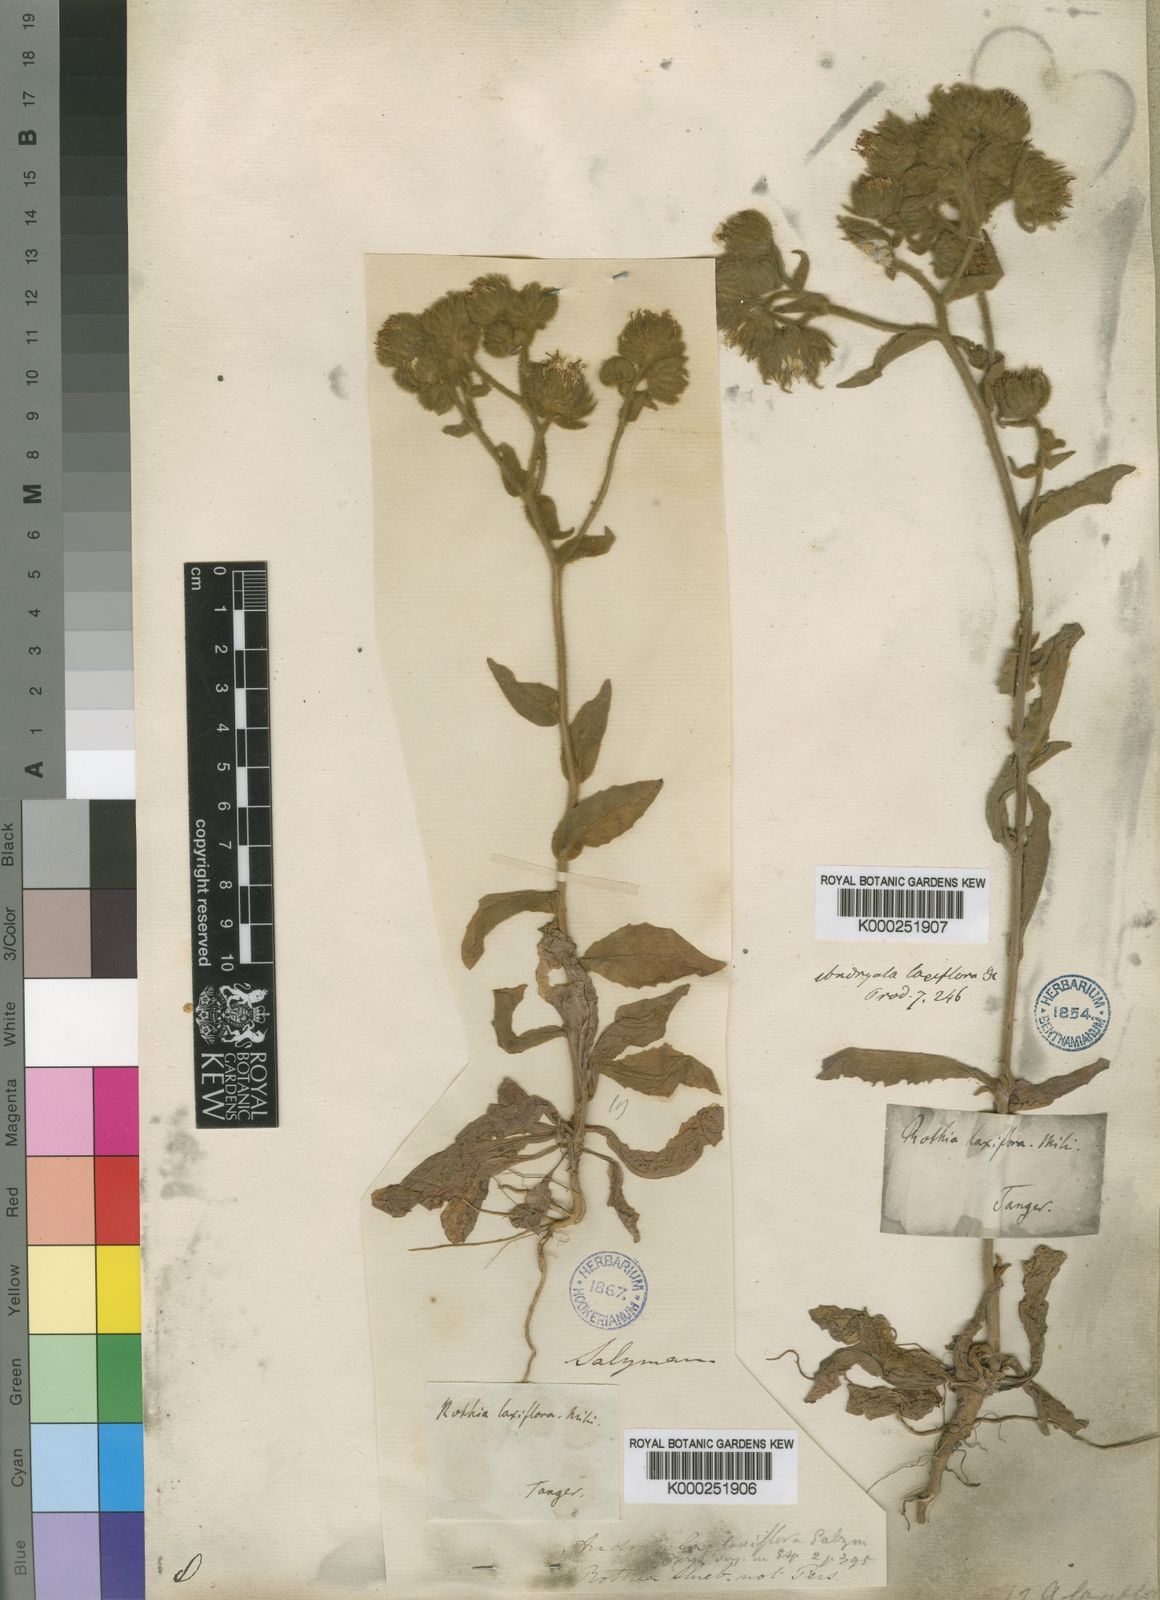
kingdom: Plantae
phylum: Tracheophyta
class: Magnoliopsida
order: Asterales
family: Asteraceae
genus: Andryala
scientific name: Andryala rothia
